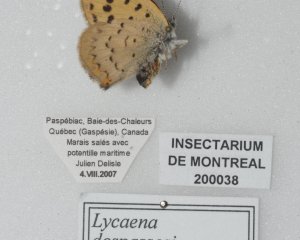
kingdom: Animalia
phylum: Arthropoda
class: Insecta
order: Lepidoptera
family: Lycaenidae
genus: Epidemia
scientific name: Epidemia dorcas
